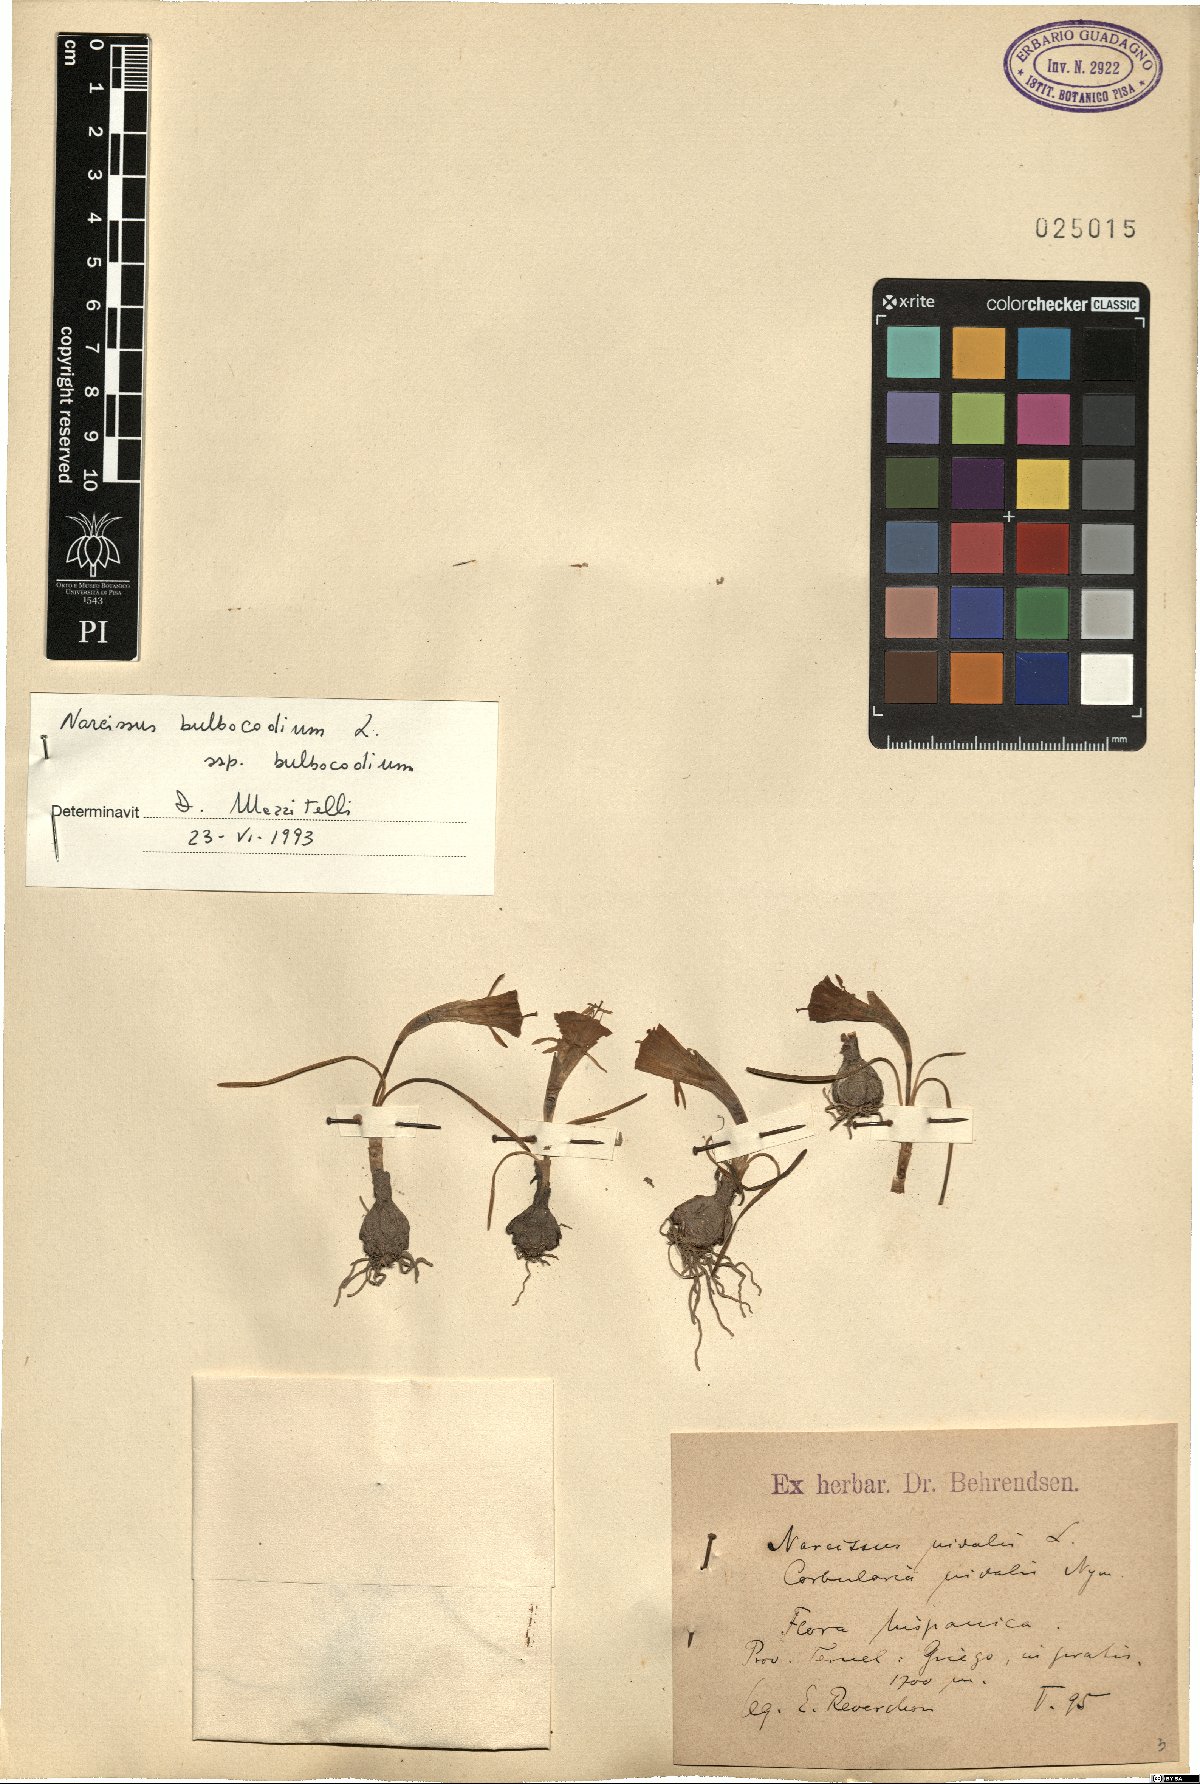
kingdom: Plantae
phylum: Tracheophyta
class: Liliopsida
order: Asparagales
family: Amaryllidaceae
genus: Narcissus
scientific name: Narcissus bulbocodium
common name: Hoop-petticoat daffodil
